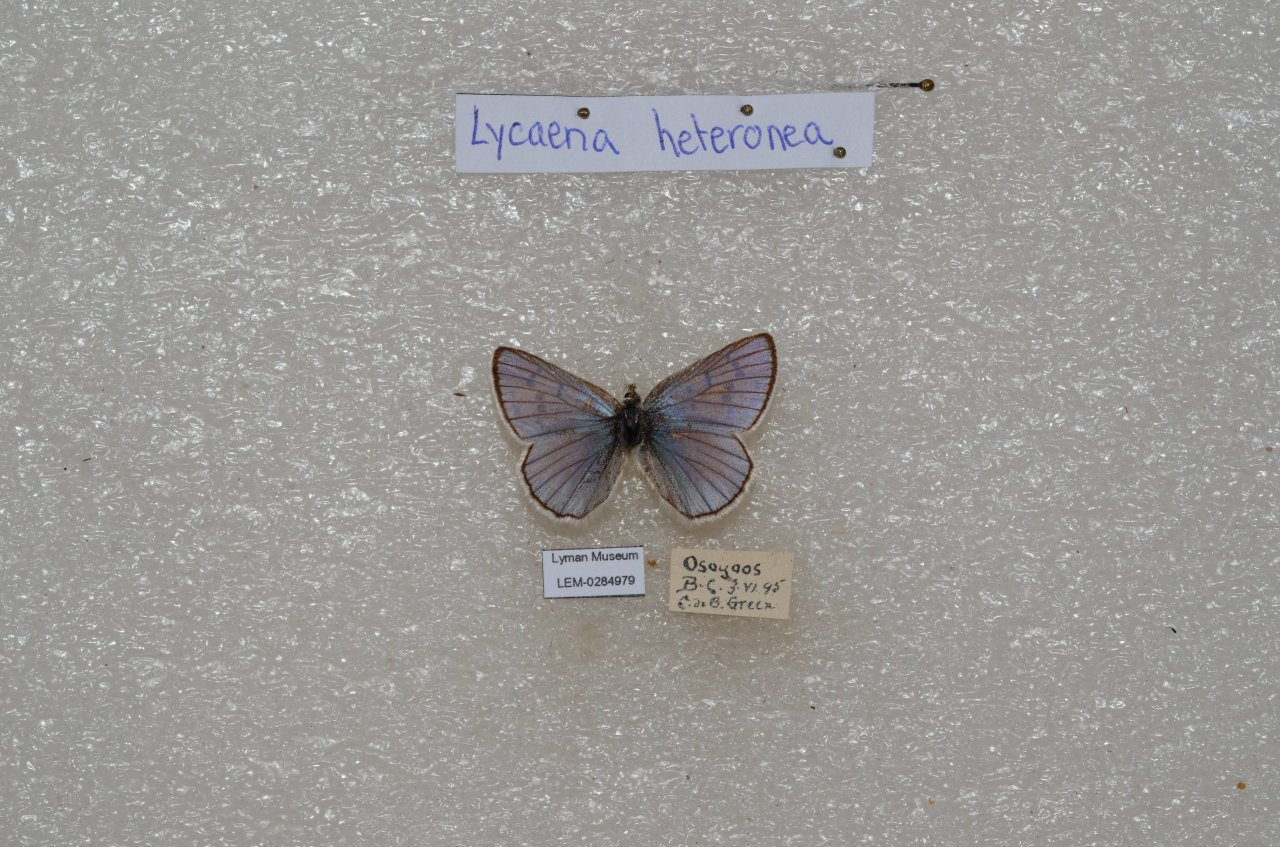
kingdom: Animalia
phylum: Arthropoda
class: Insecta
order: Lepidoptera
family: Lycaenidae
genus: Lycaena
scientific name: Lycaena heteronea
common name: Blue Copper
